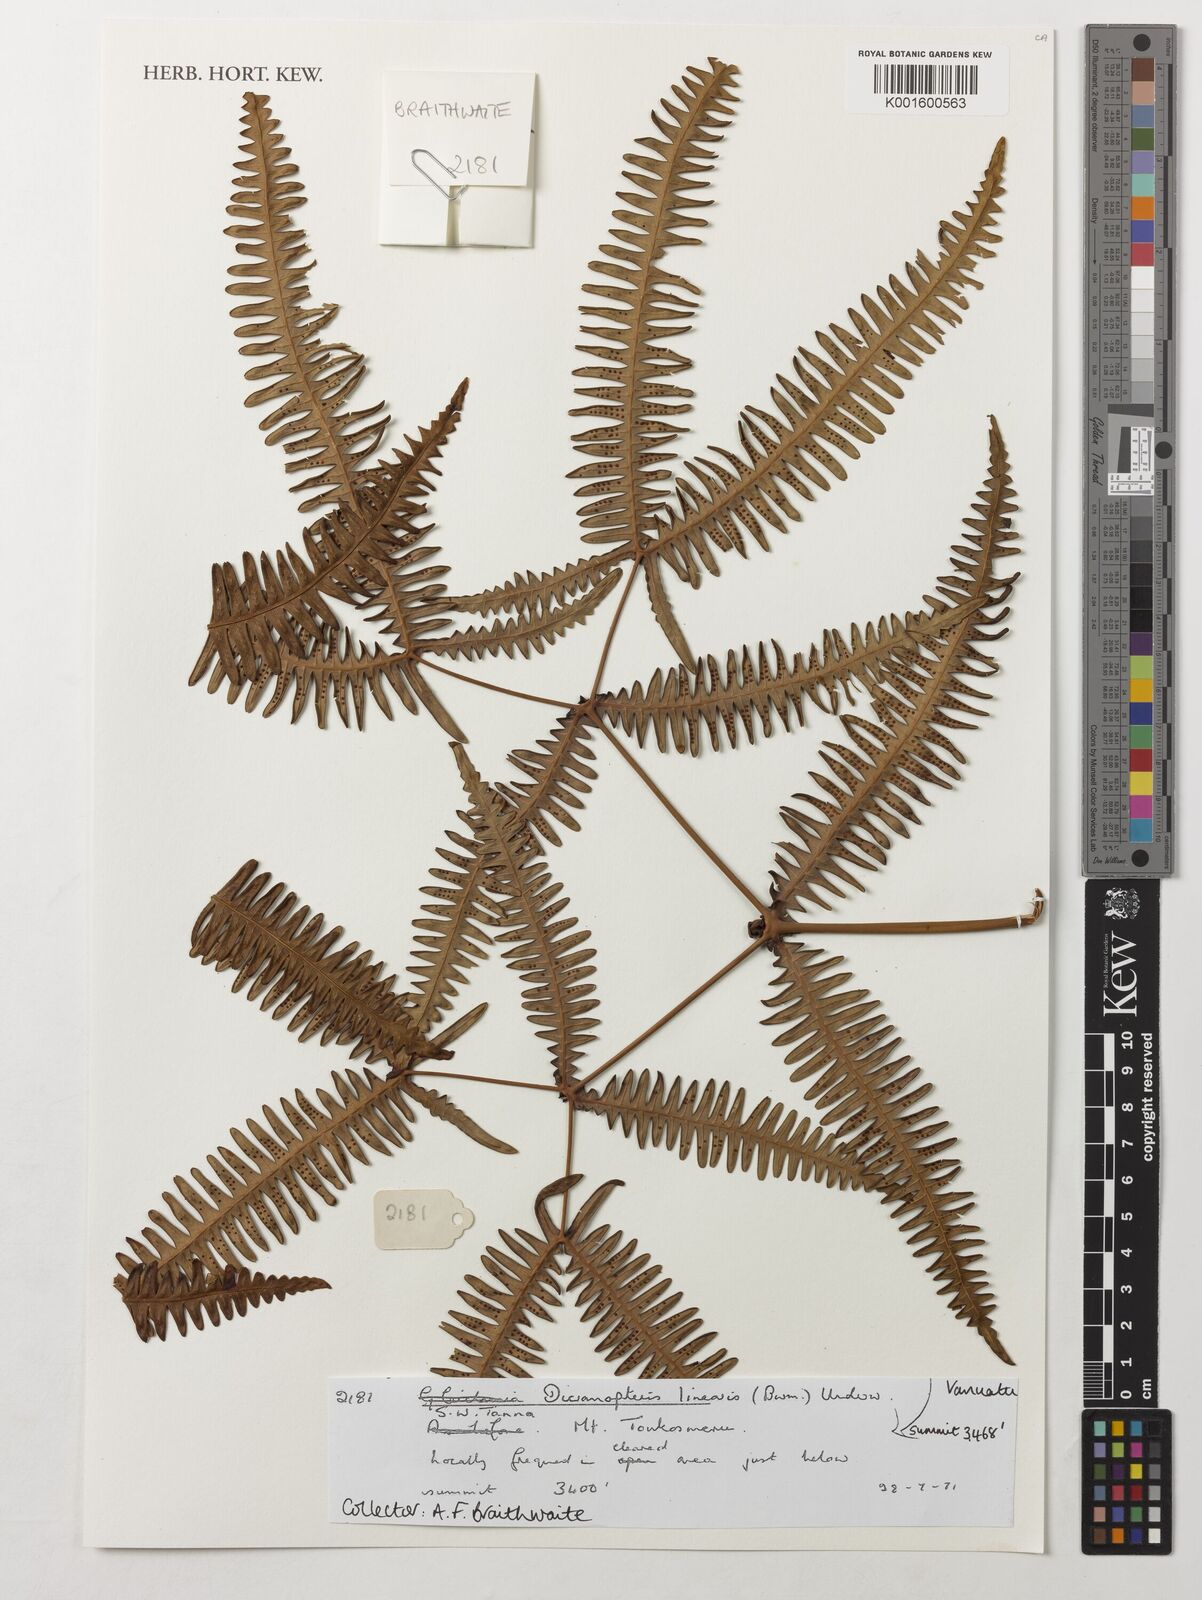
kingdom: Plantae
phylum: Tracheophyta
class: Polypodiopsida
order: Gleicheniales
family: Gleicheniaceae
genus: Dicranopteris
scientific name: Dicranopteris linearis
